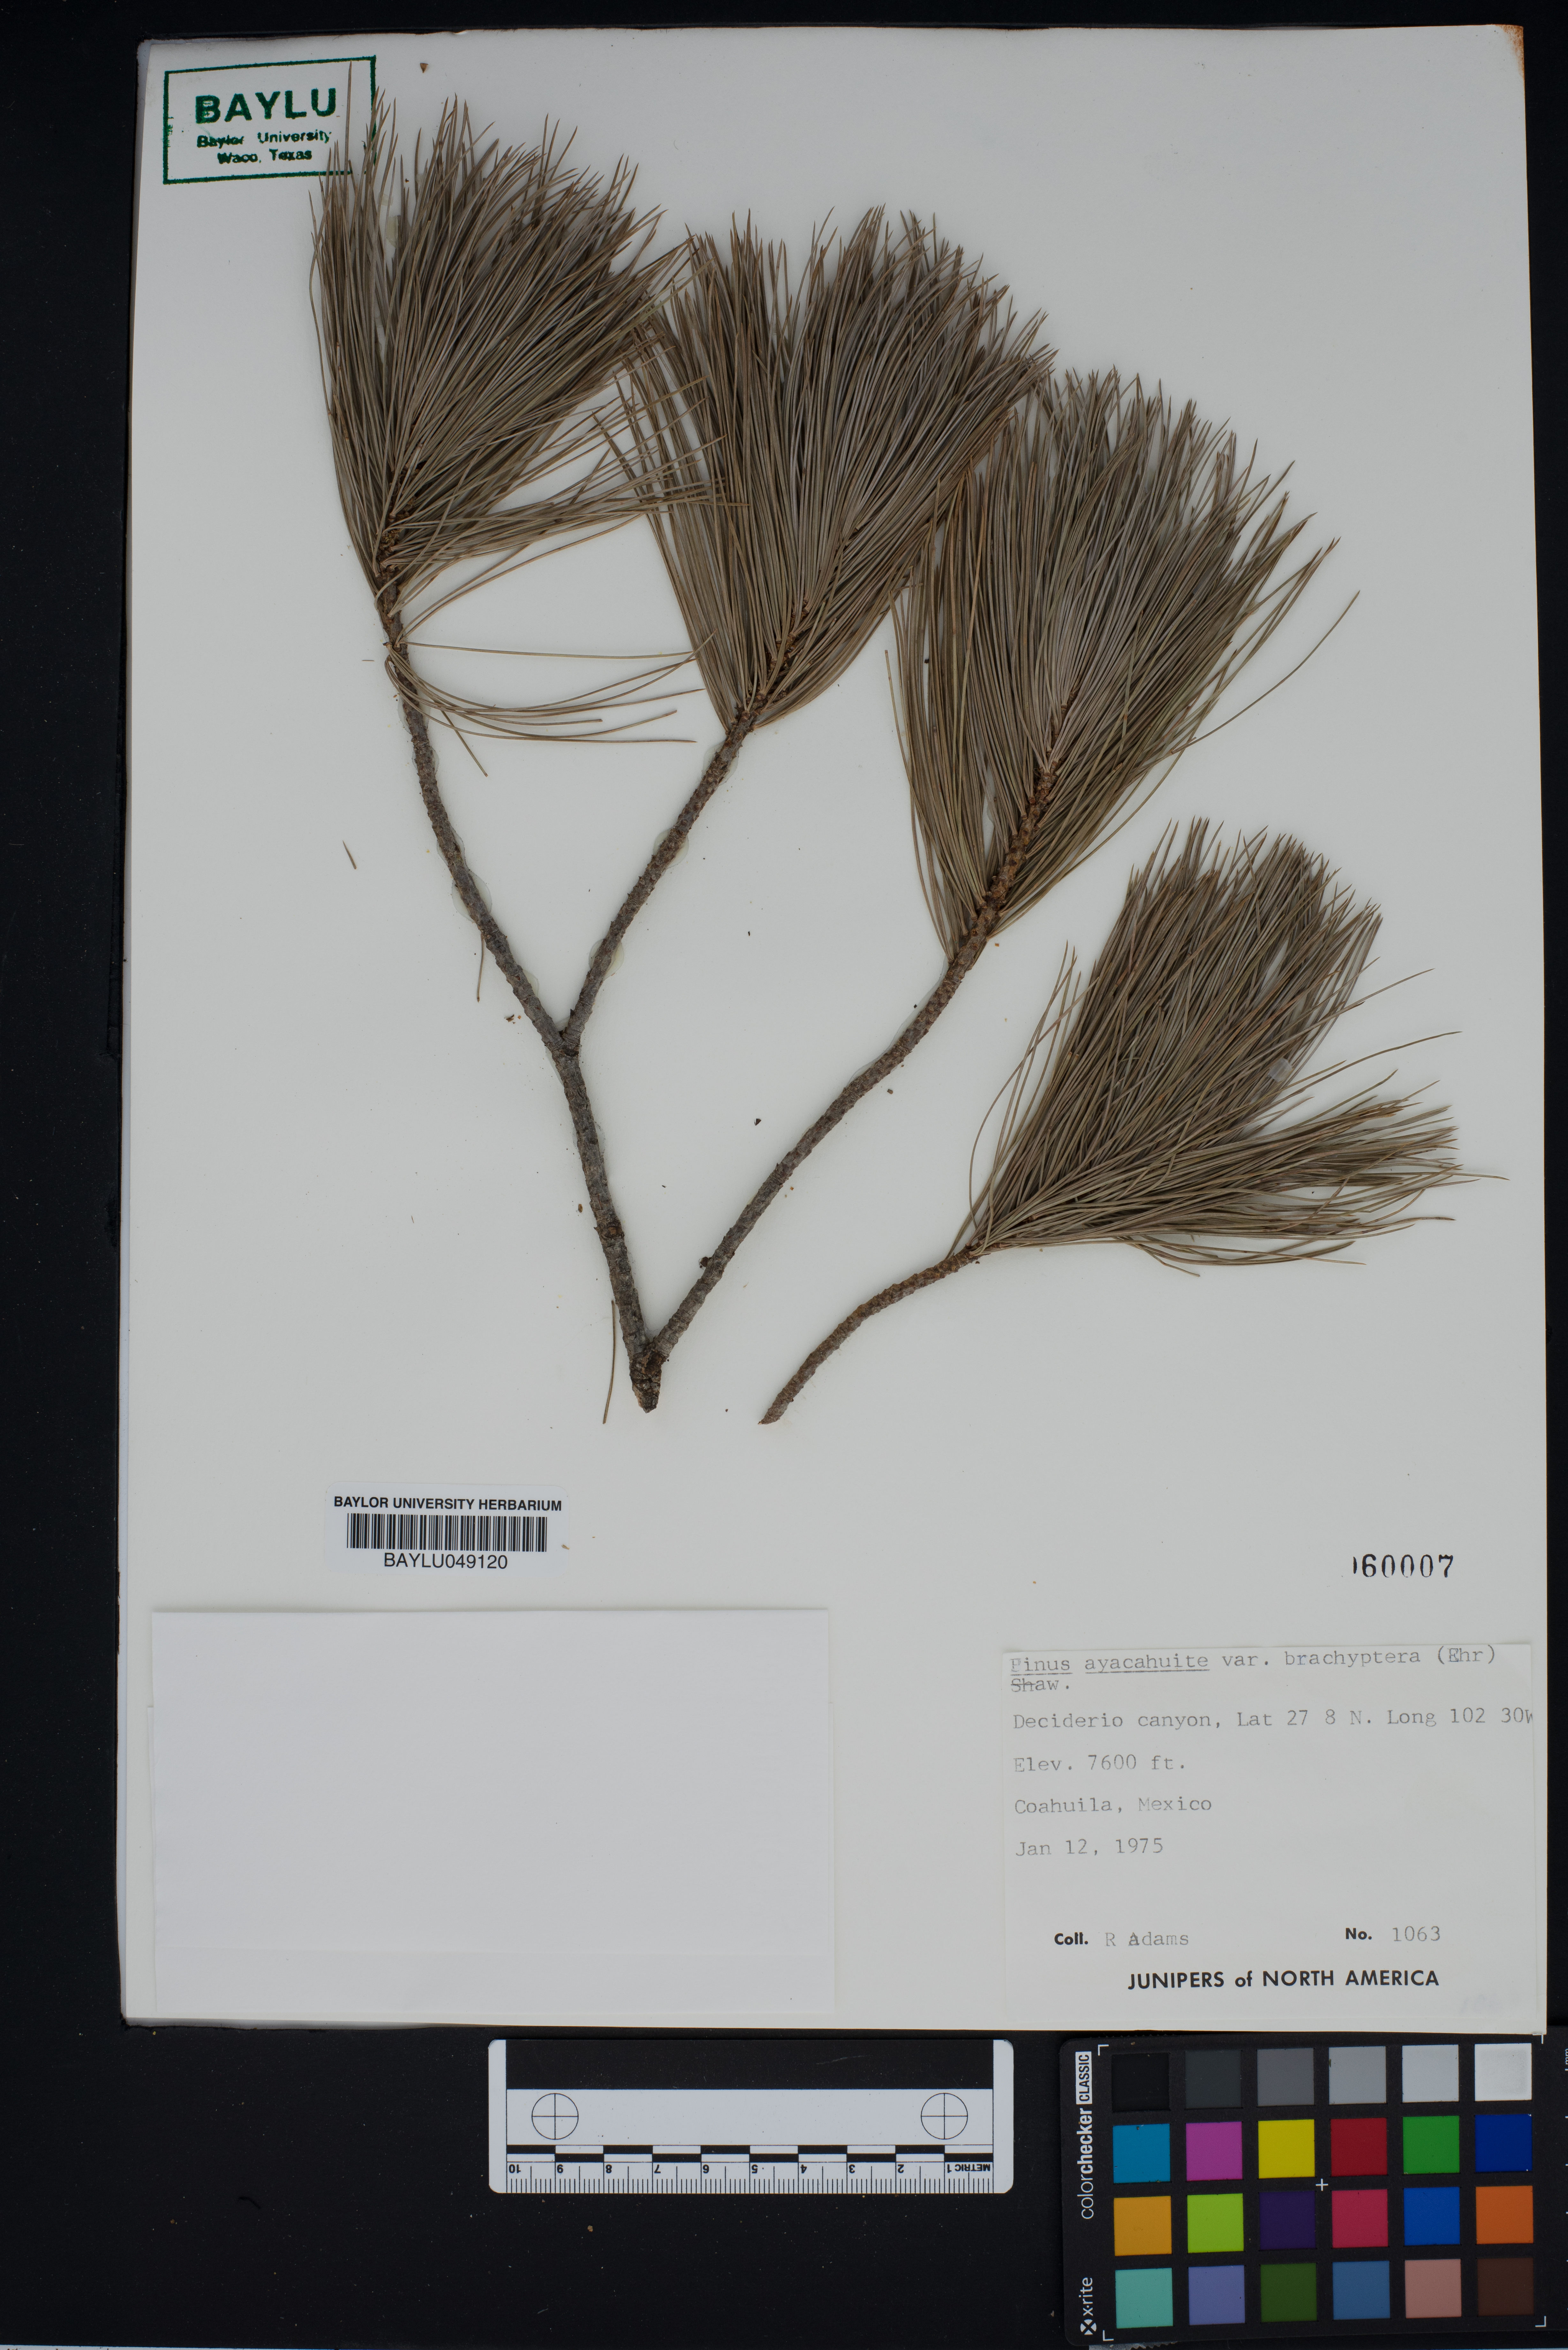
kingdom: Plantae
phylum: Tracheophyta
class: Pinopsida
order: Pinales
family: Pinaceae
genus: Pinus
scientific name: Pinus strobiformis
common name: Southwestern white pine
